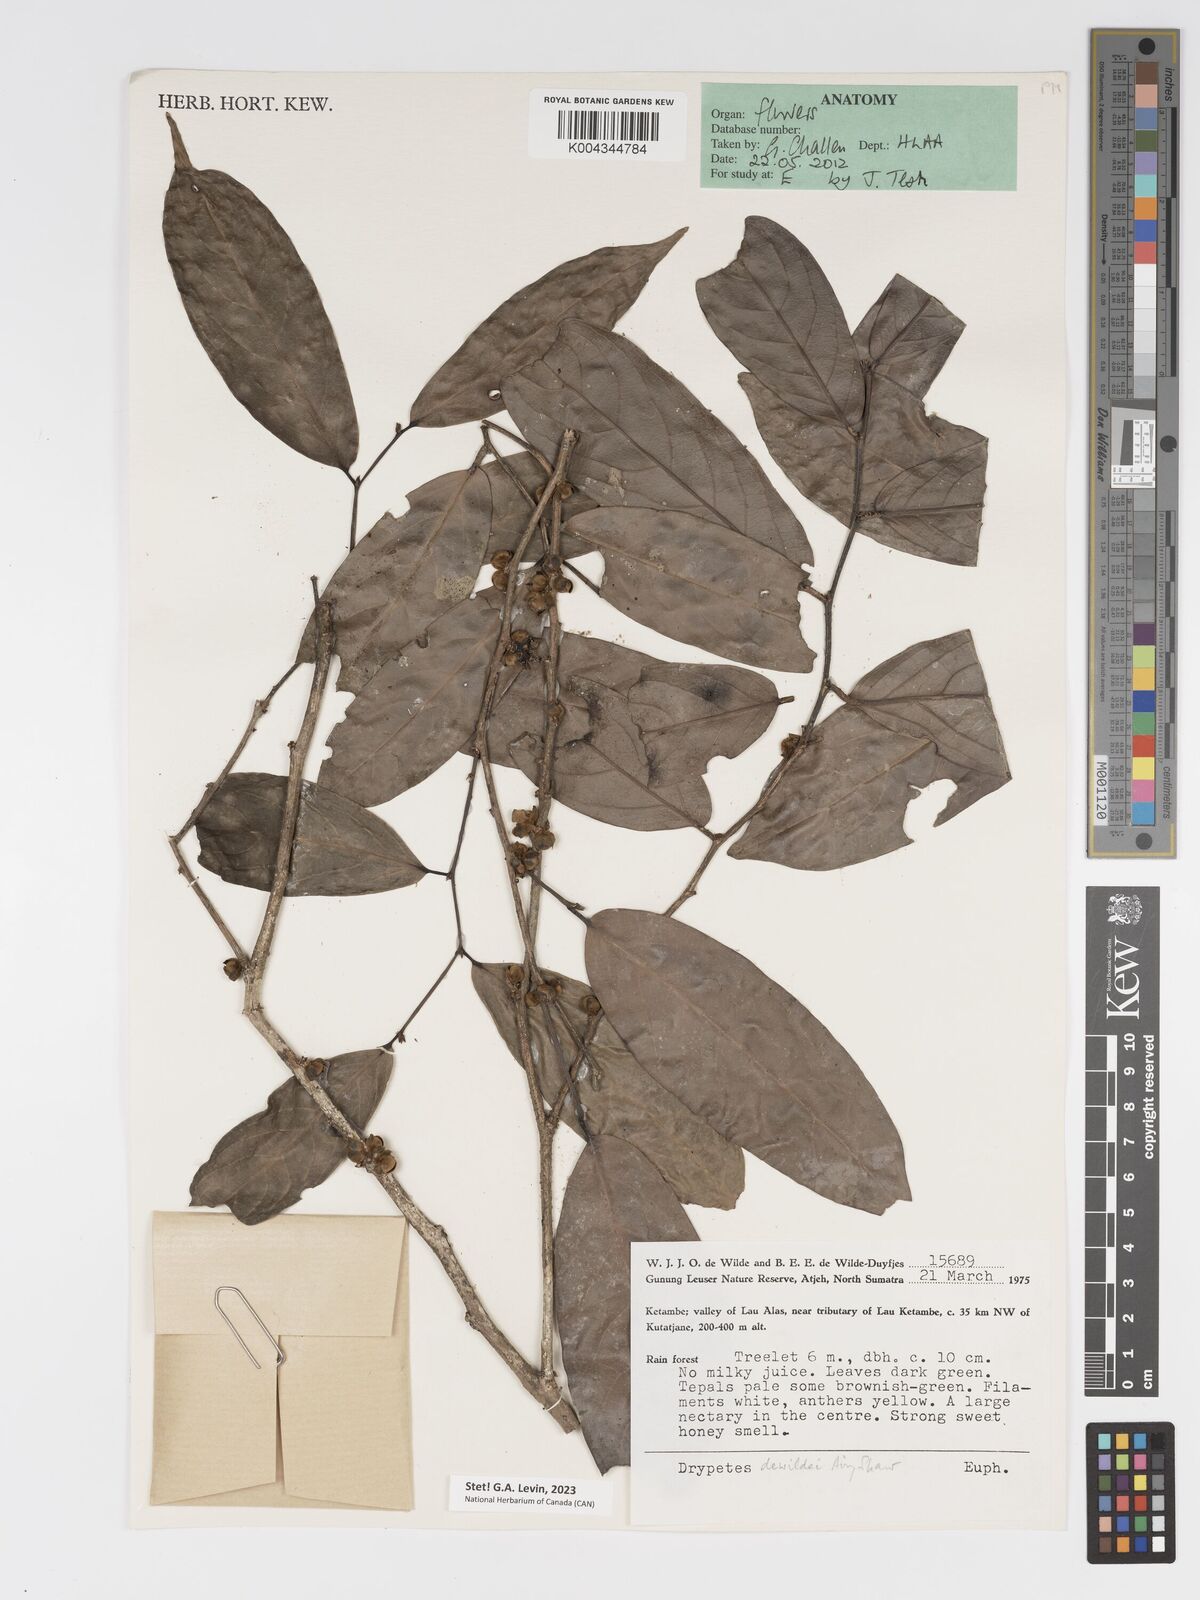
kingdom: Plantae
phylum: Tracheophyta
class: Magnoliopsida
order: Malpighiales
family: Putranjivaceae
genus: Drypetes
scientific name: Drypetes dewildei
